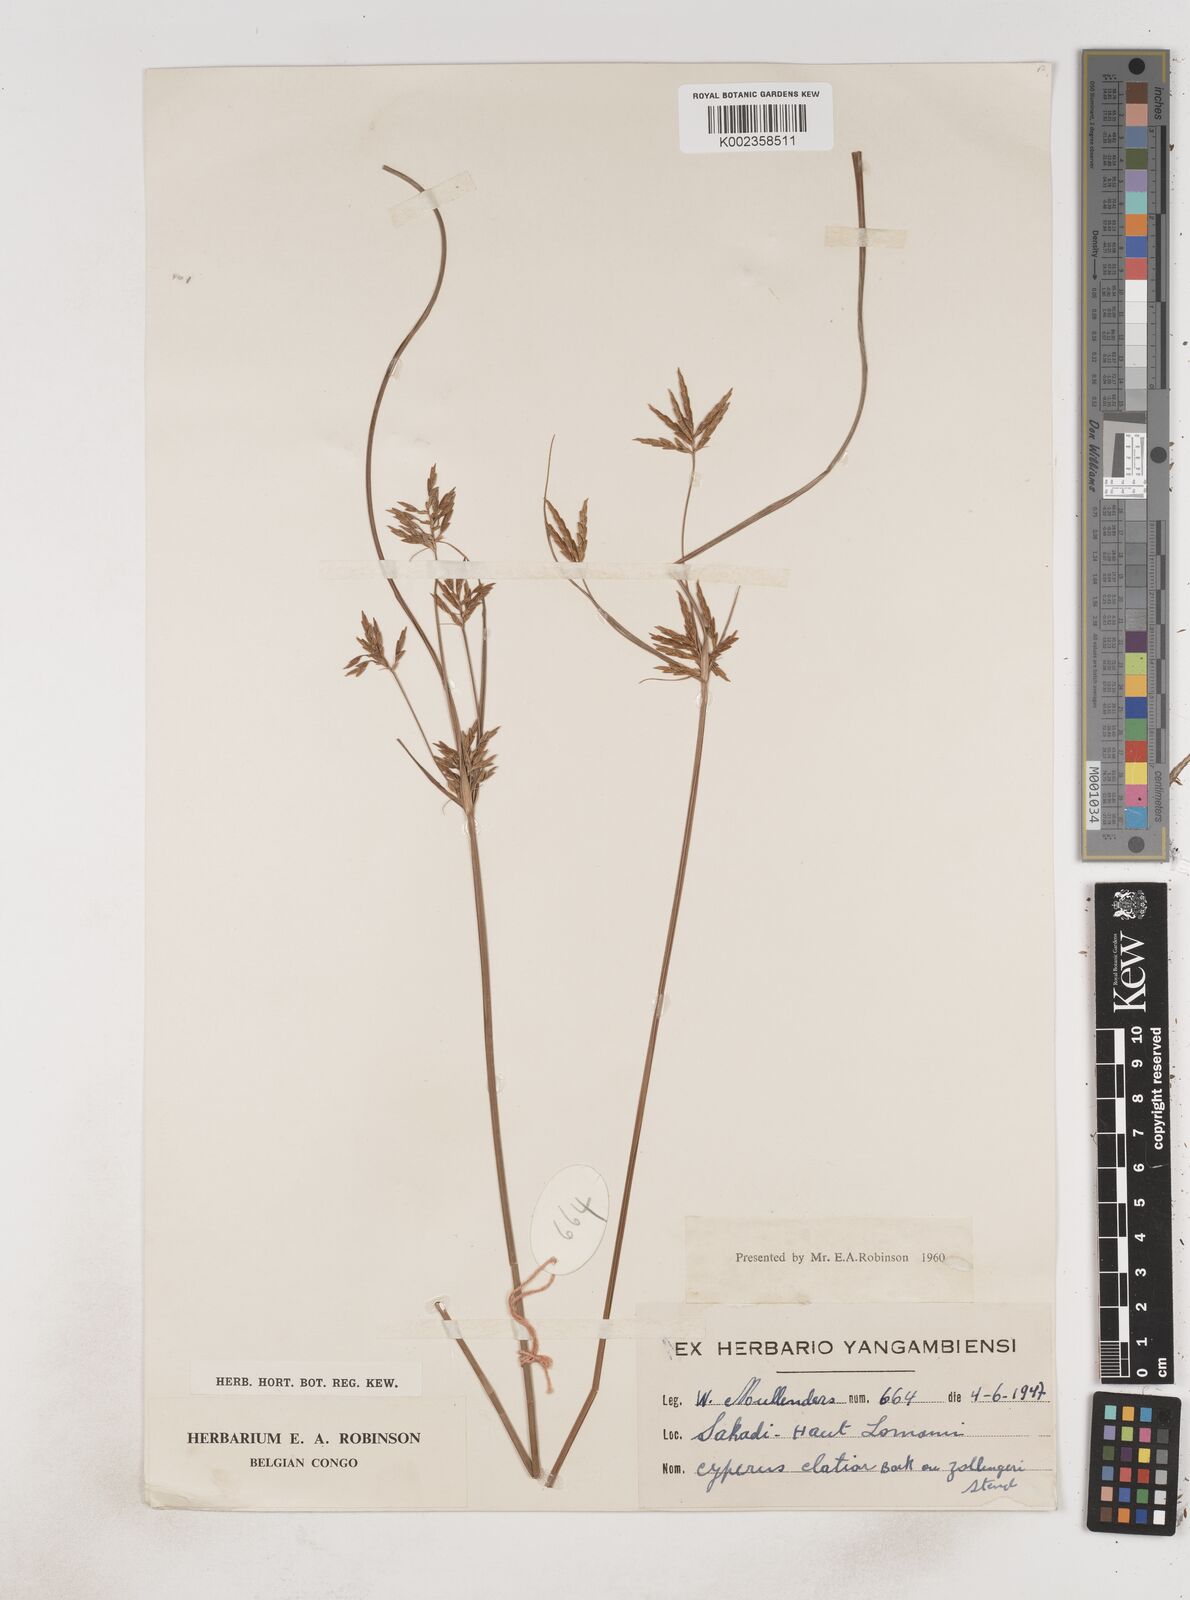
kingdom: Plantae
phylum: Tracheophyta
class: Liliopsida
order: Poales
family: Cyperaceae
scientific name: Cyperaceae
